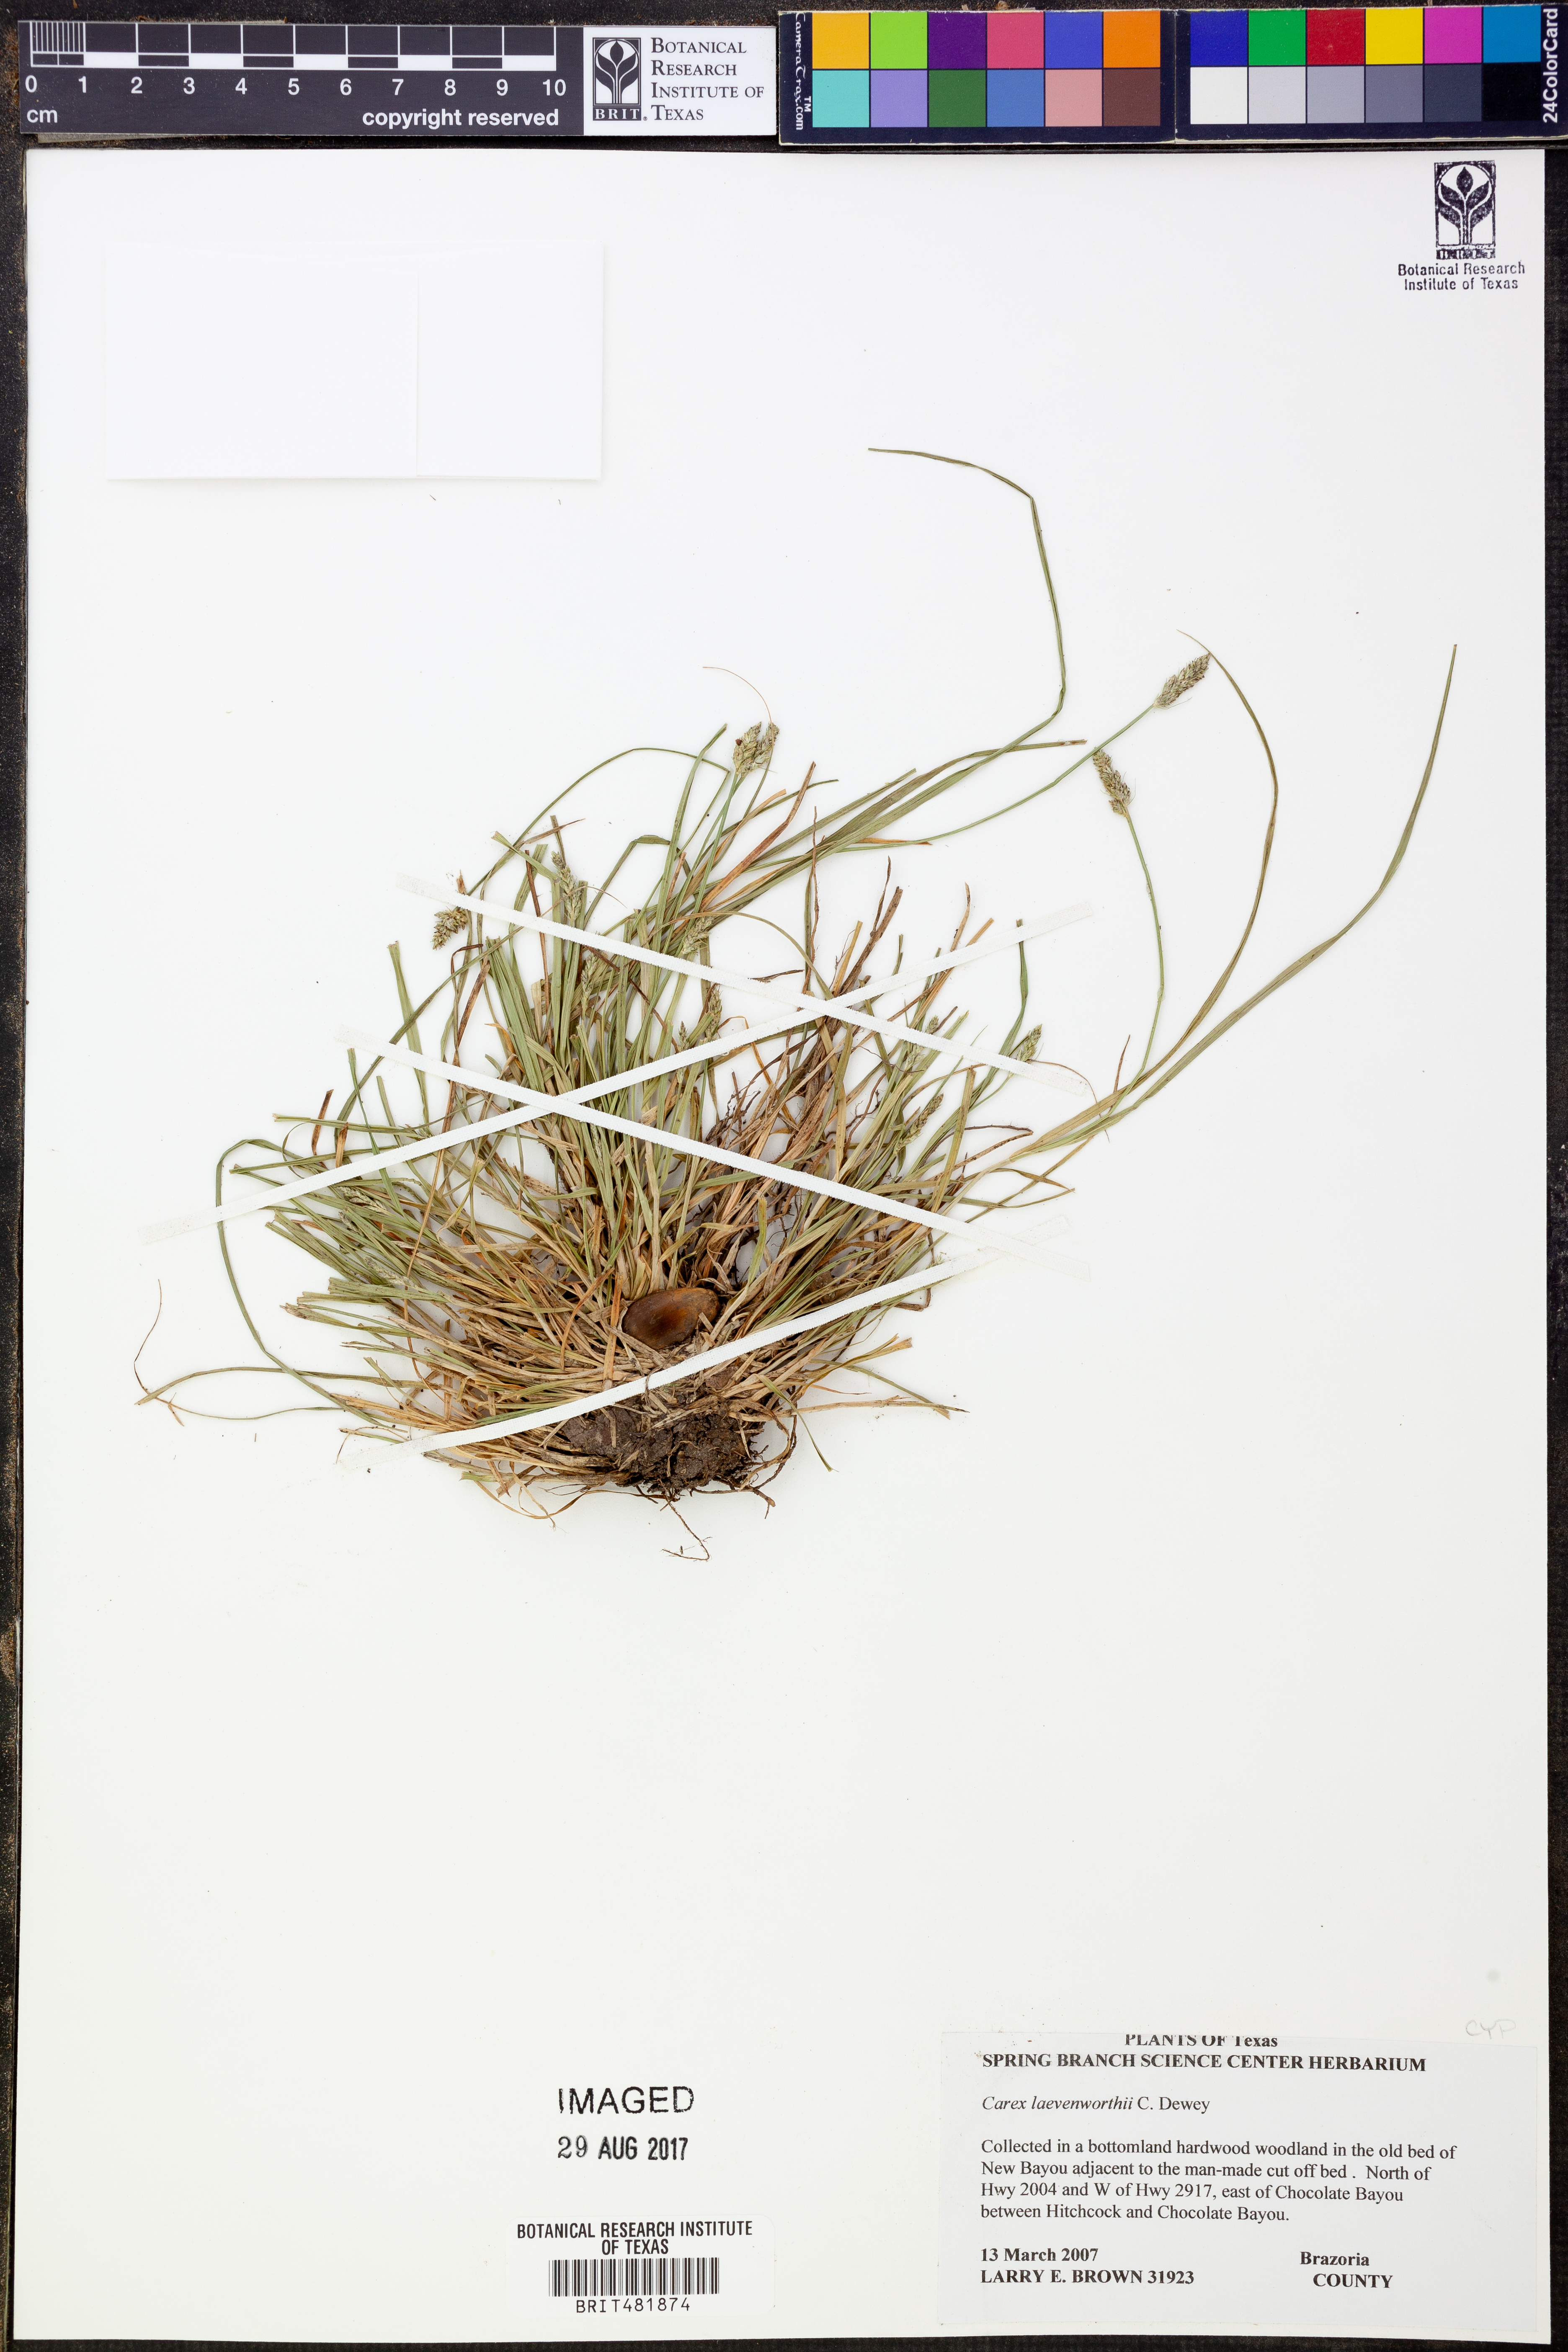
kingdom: Plantae
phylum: Tracheophyta
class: Liliopsida
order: Poales
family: Cyperaceae
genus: Carex
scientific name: Carex leavenworthii
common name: Leavenworth's bracted sedge
